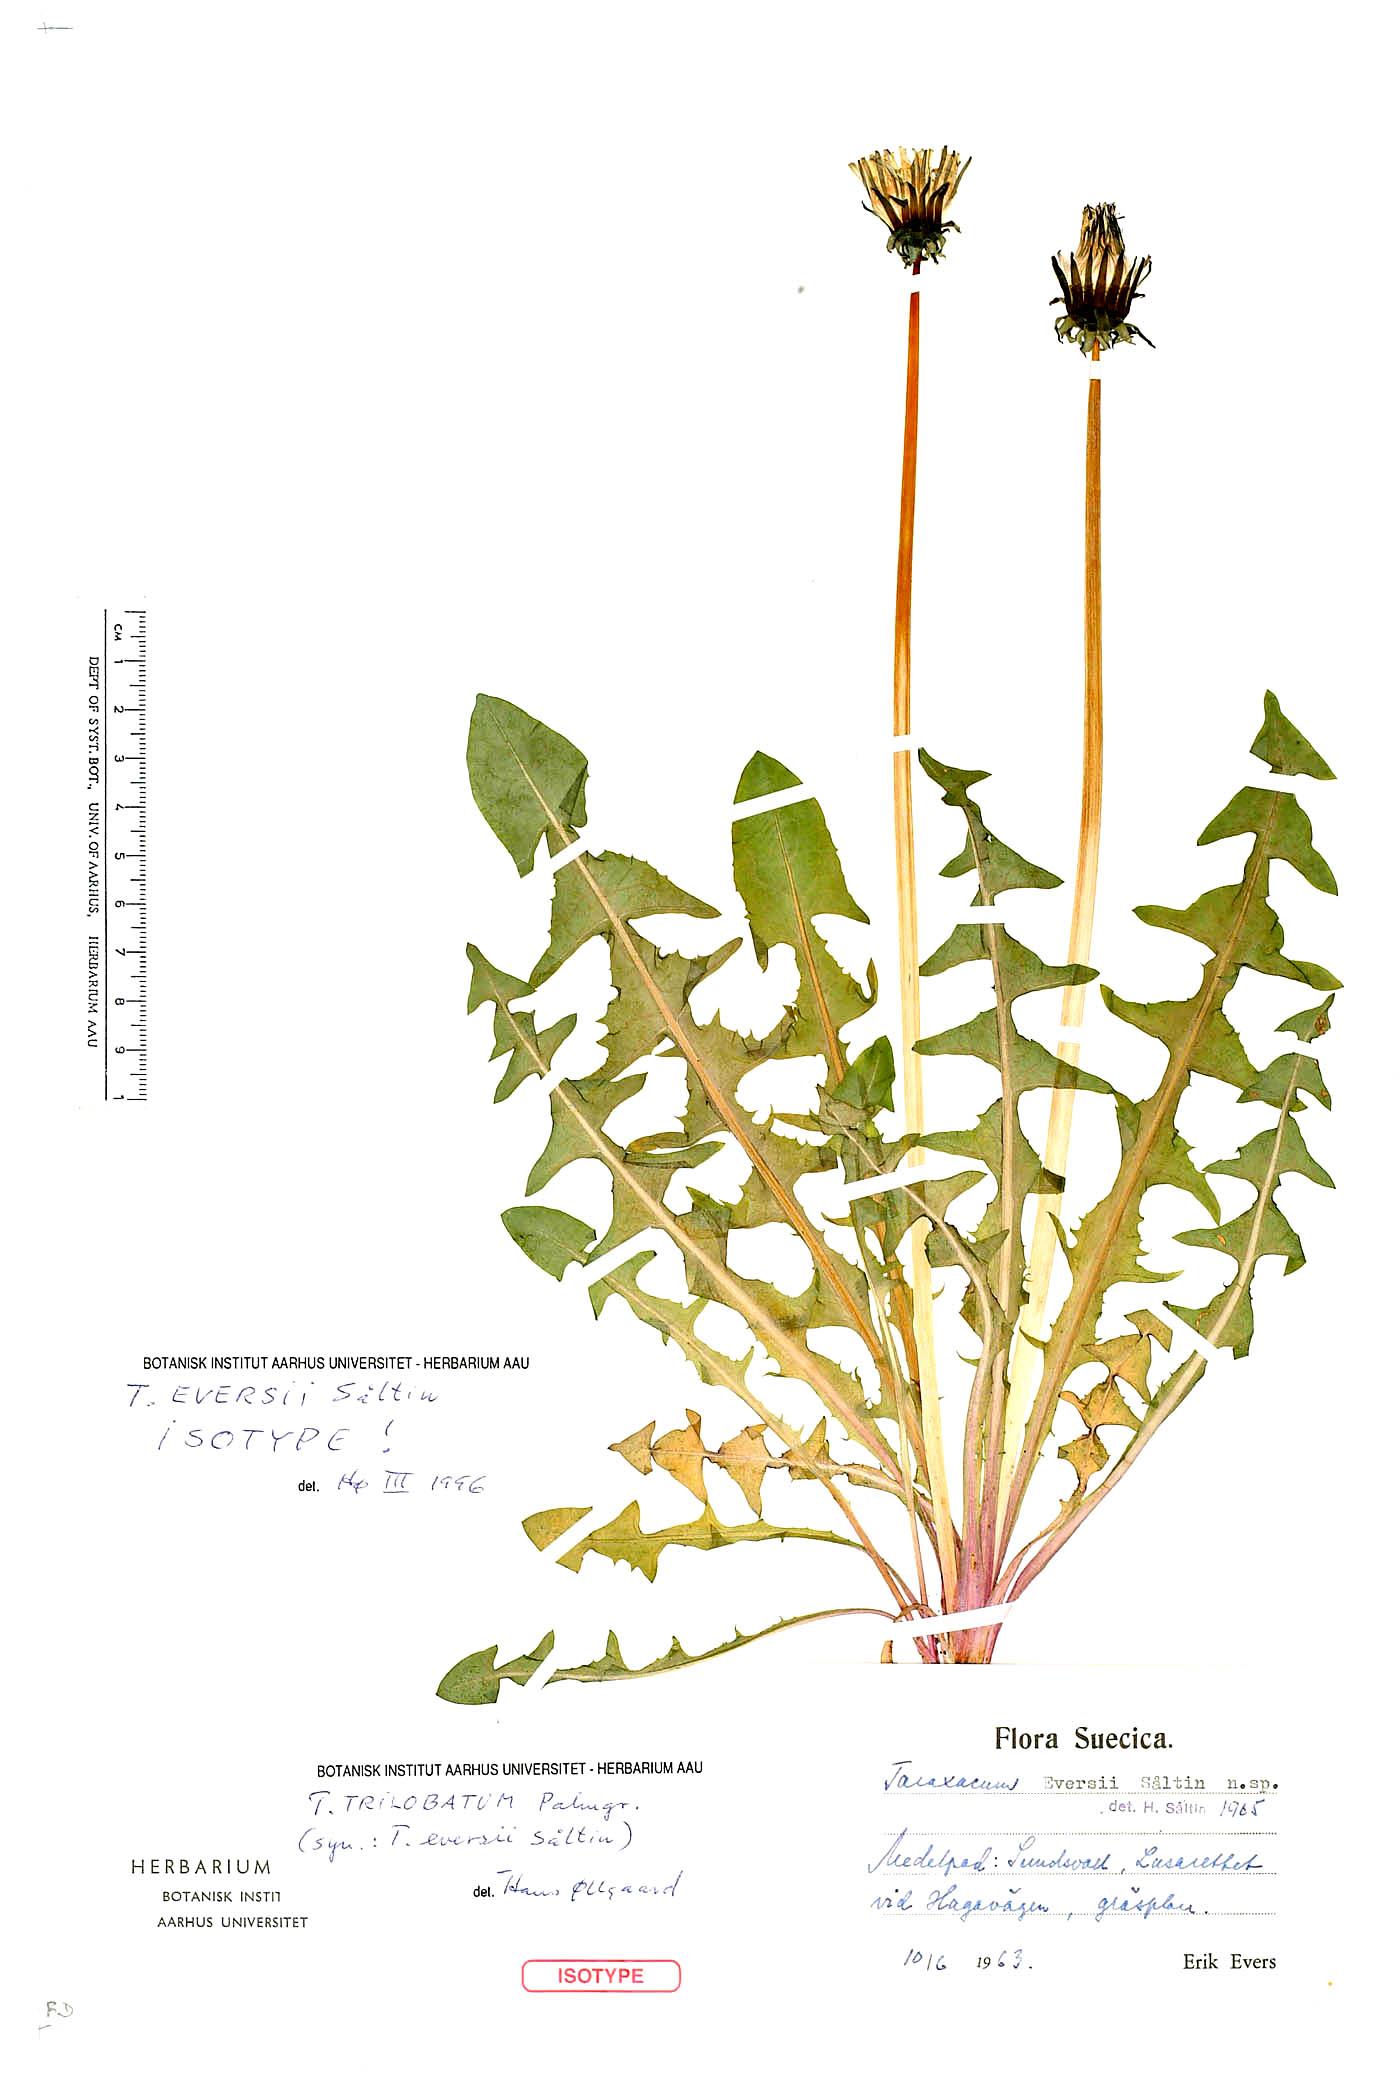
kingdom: Plantae
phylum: Tracheophyta
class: Magnoliopsida
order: Asterales
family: Asteraceae
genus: Taraxacum
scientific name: Taraxacum trilobatum
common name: Three-lobed dandelion
